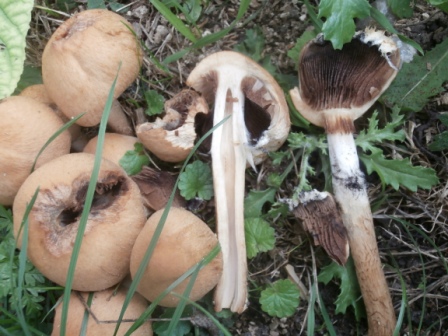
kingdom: Fungi
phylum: Basidiomycota
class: Agaricomycetes
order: Agaricales
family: Psathyrellaceae
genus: Lacrymaria
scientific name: Lacrymaria lacrymabunda
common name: grædende mørkhat
